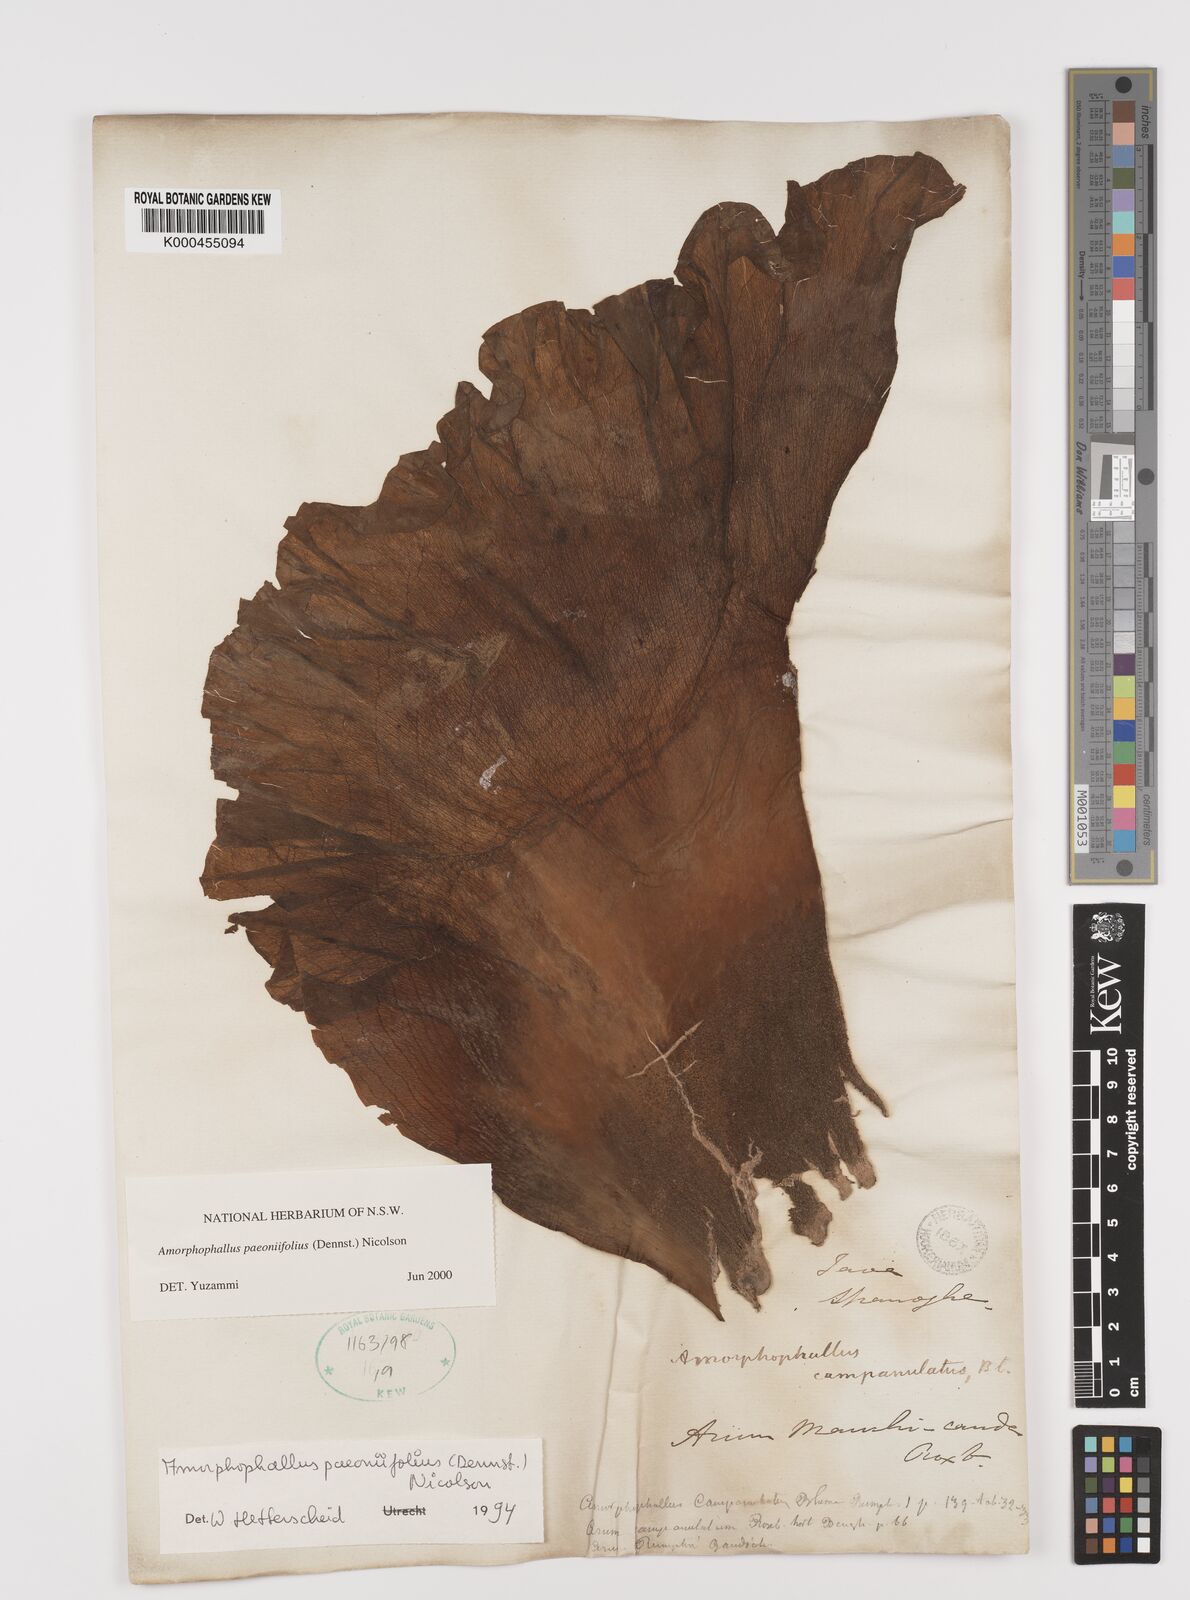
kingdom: Plantae
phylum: Tracheophyta
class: Liliopsida
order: Alismatales
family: Araceae
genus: Amorphophallus
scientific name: Amorphophallus paeoniifolius
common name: Telinga-potato
